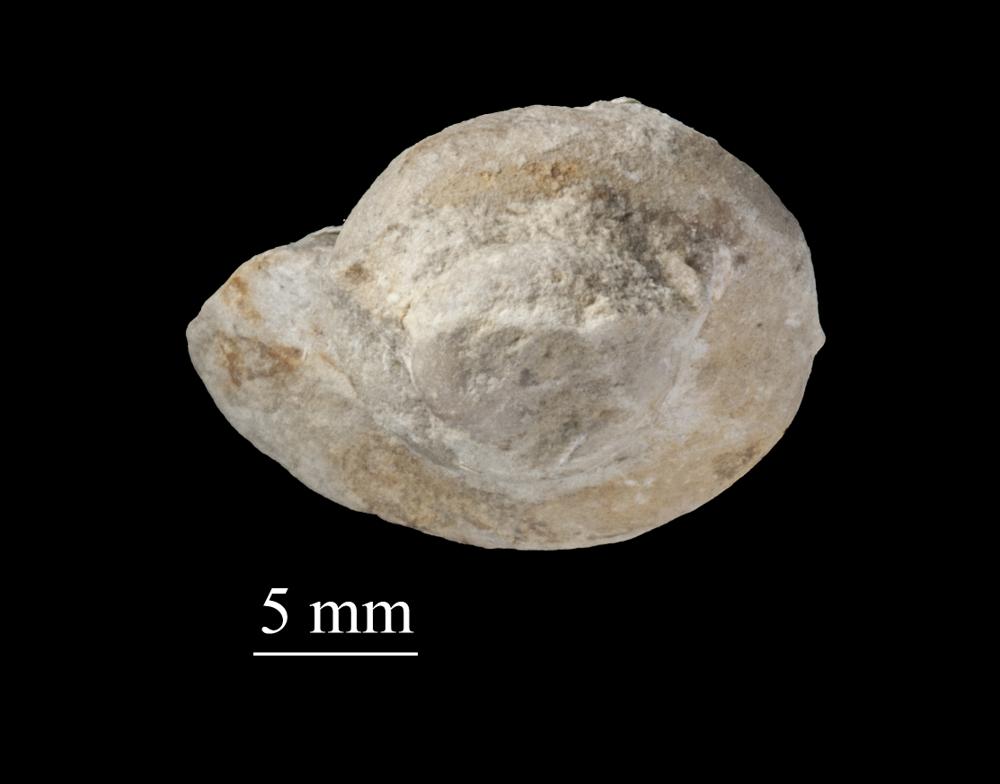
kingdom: Animalia
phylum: Mollusca
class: Gastropoda
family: Lophospiridae
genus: Loxoplocus
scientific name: Loxoplocus Worthenia vermetus
